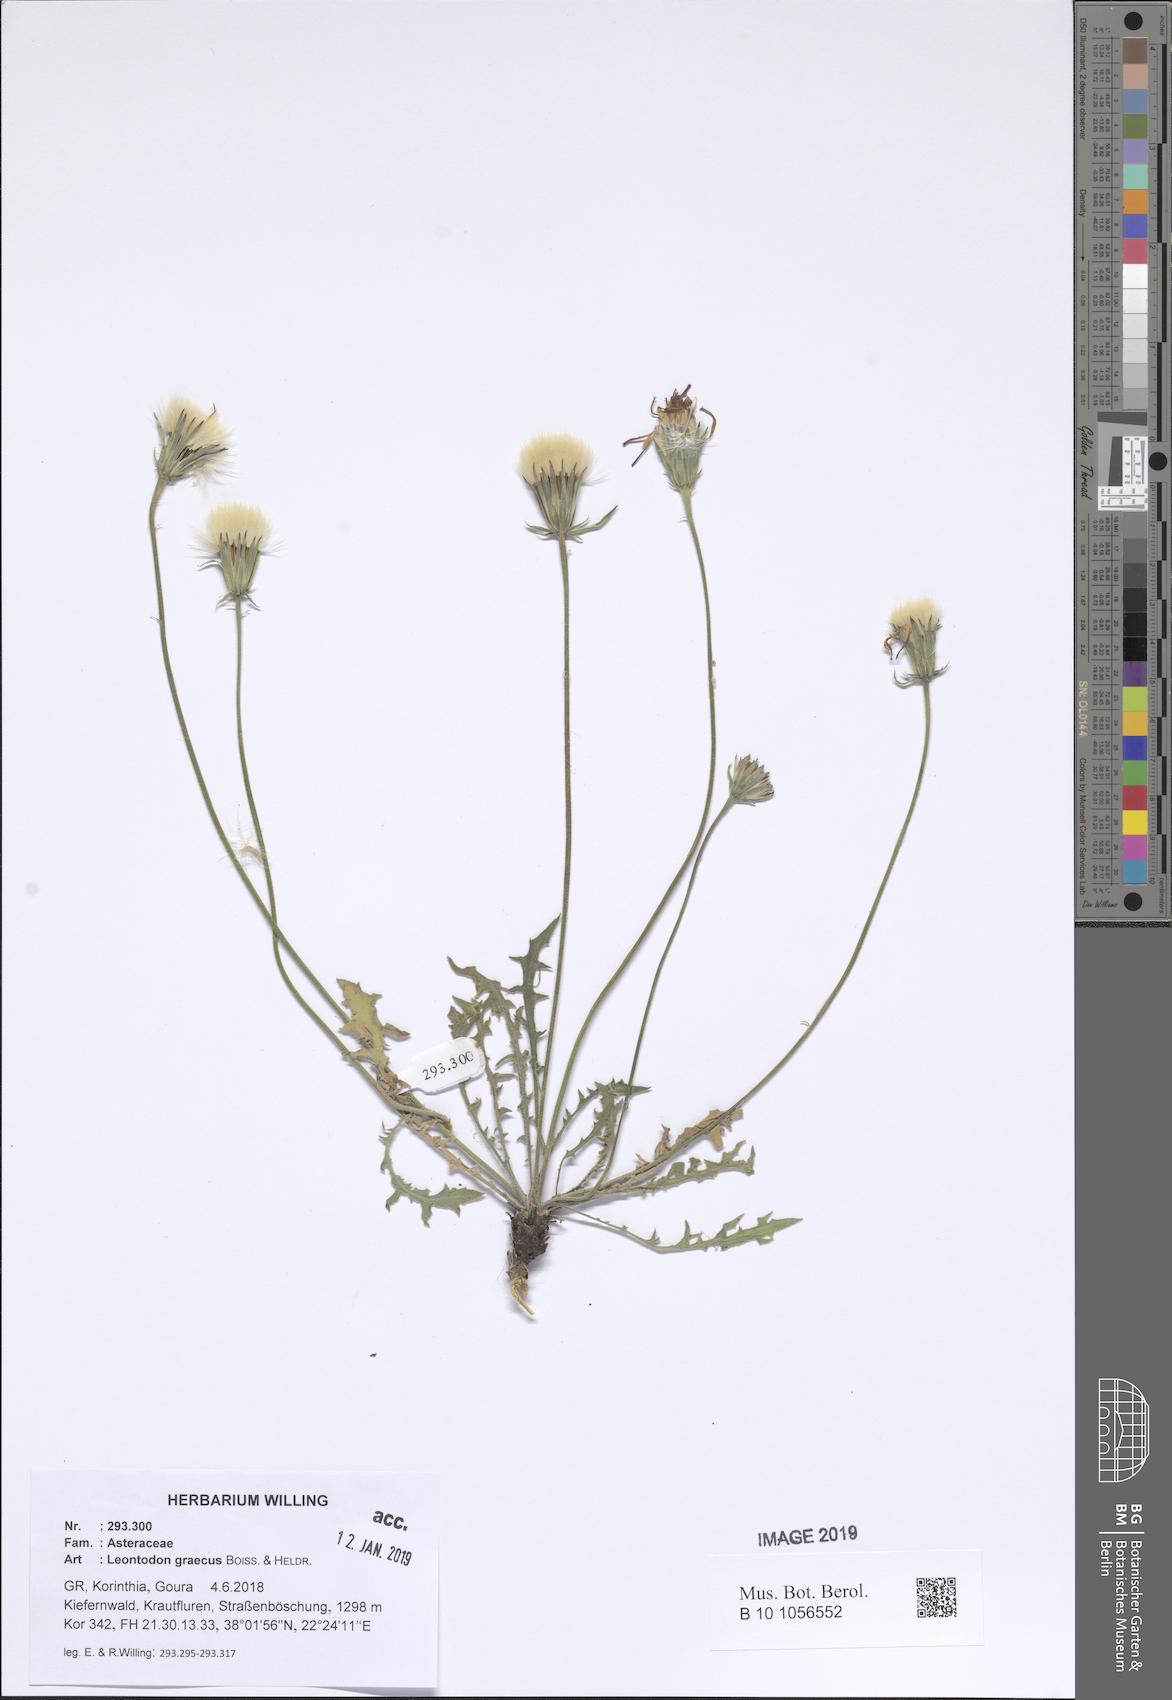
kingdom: Plantae
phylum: Tracheophyta
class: Magnoliopsida
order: Asterales
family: Asteraceae
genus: Leontodon
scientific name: Leontodon graecus
